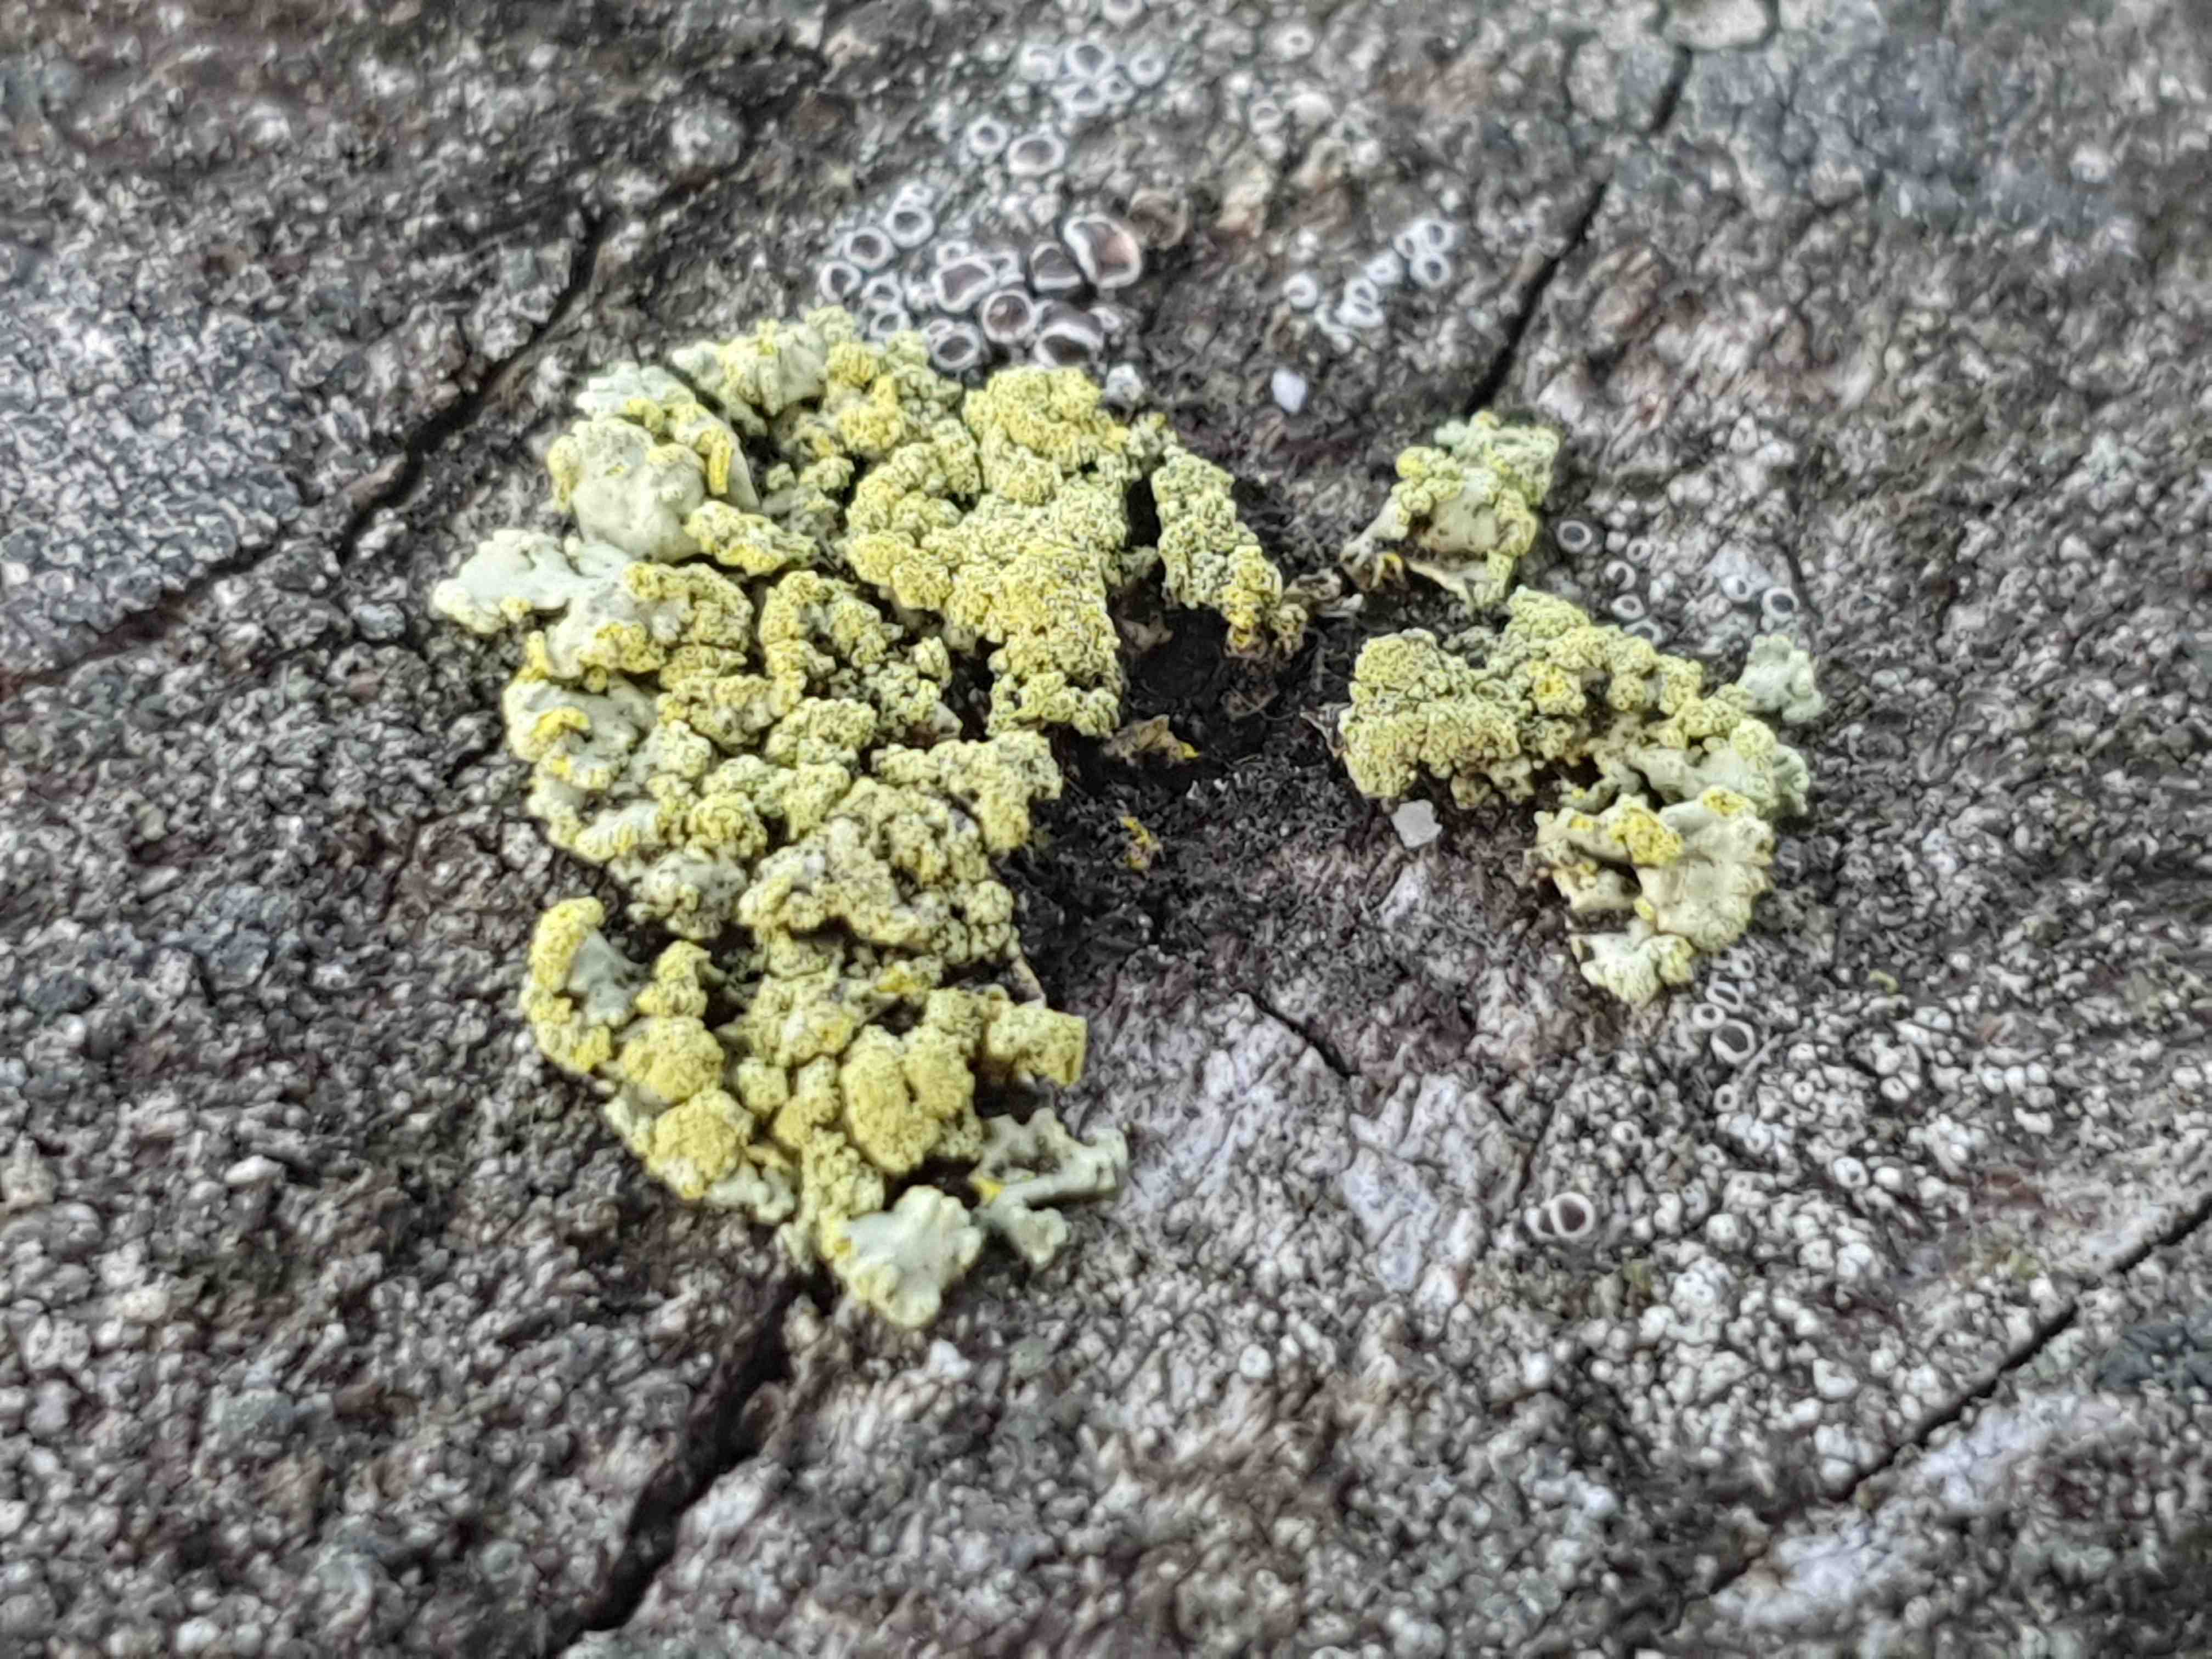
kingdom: Fungi
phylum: Ascomycota
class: Lecanoromycetes
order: Lecanorales
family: Parmeliaceae
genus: Vulpicida
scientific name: Vulpicida pinastri
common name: gul kruslav
